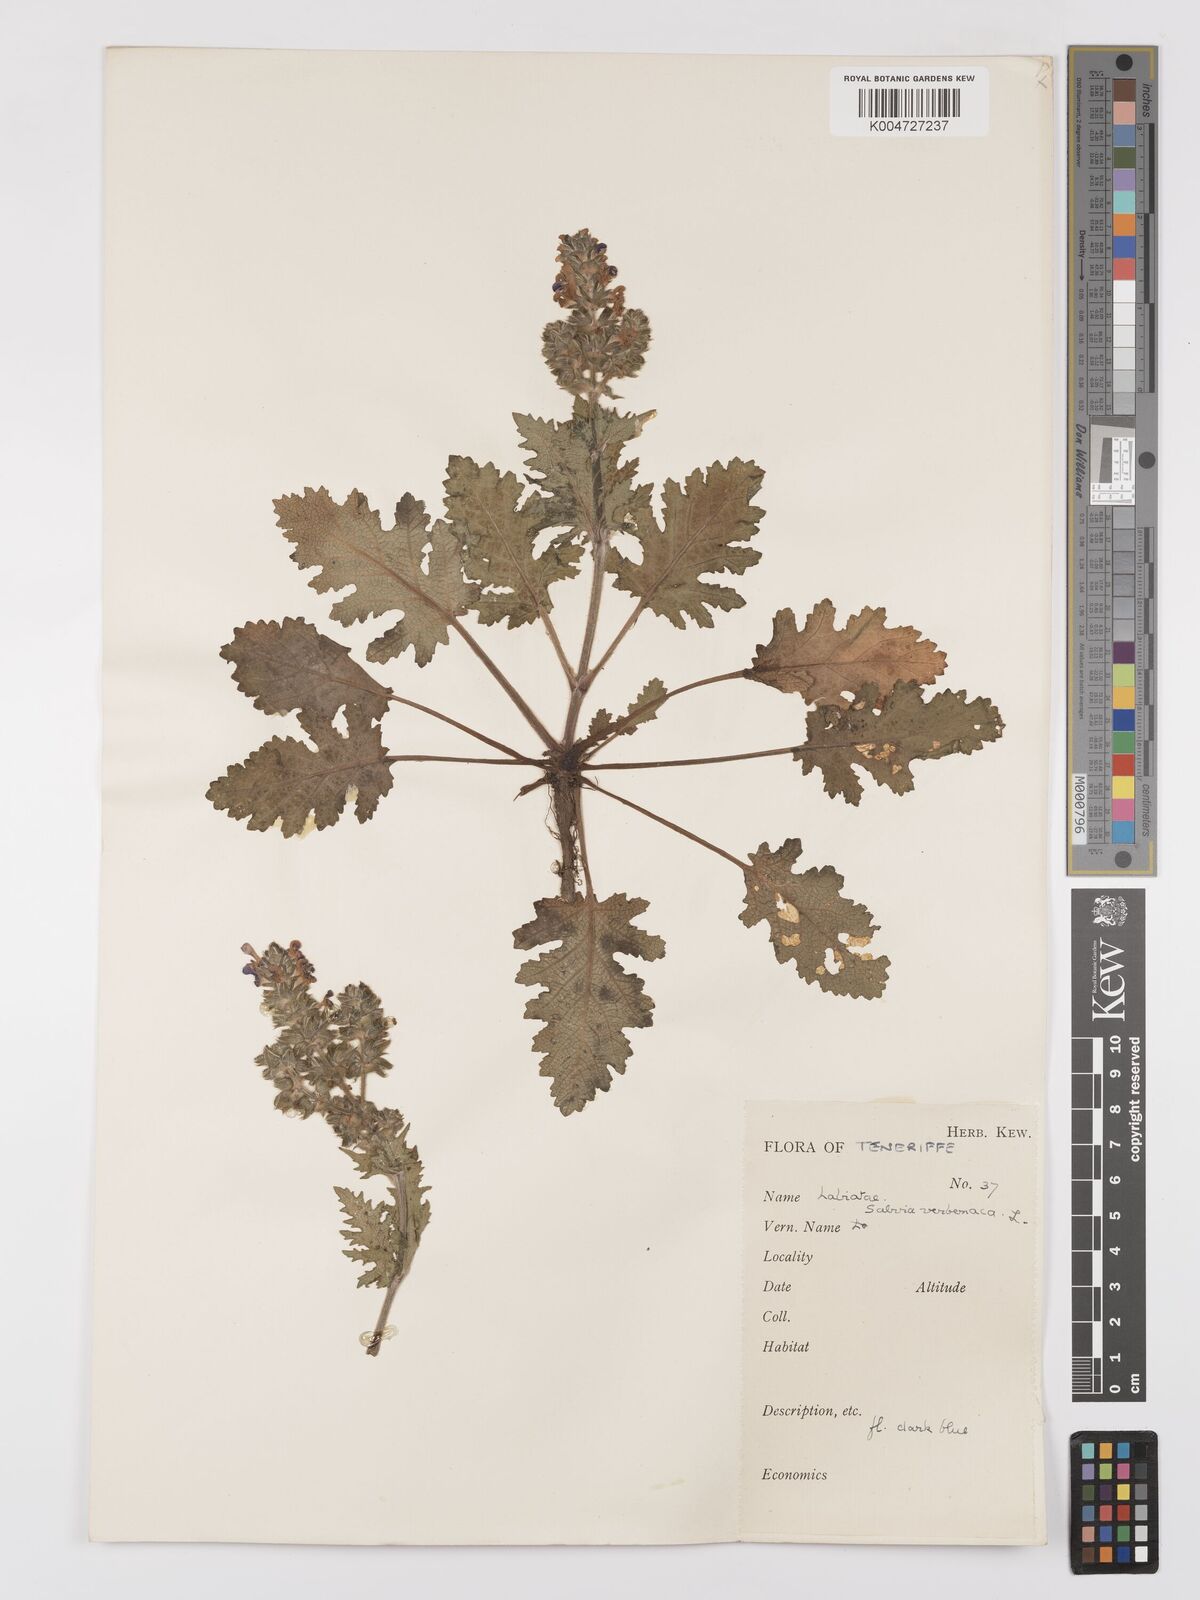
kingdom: Plantae
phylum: Tracheophyta
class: Magnoliopsida
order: Lamiales
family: Lamiaceae
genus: Salvia
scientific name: Salvia verbenaca
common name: Wild clary
